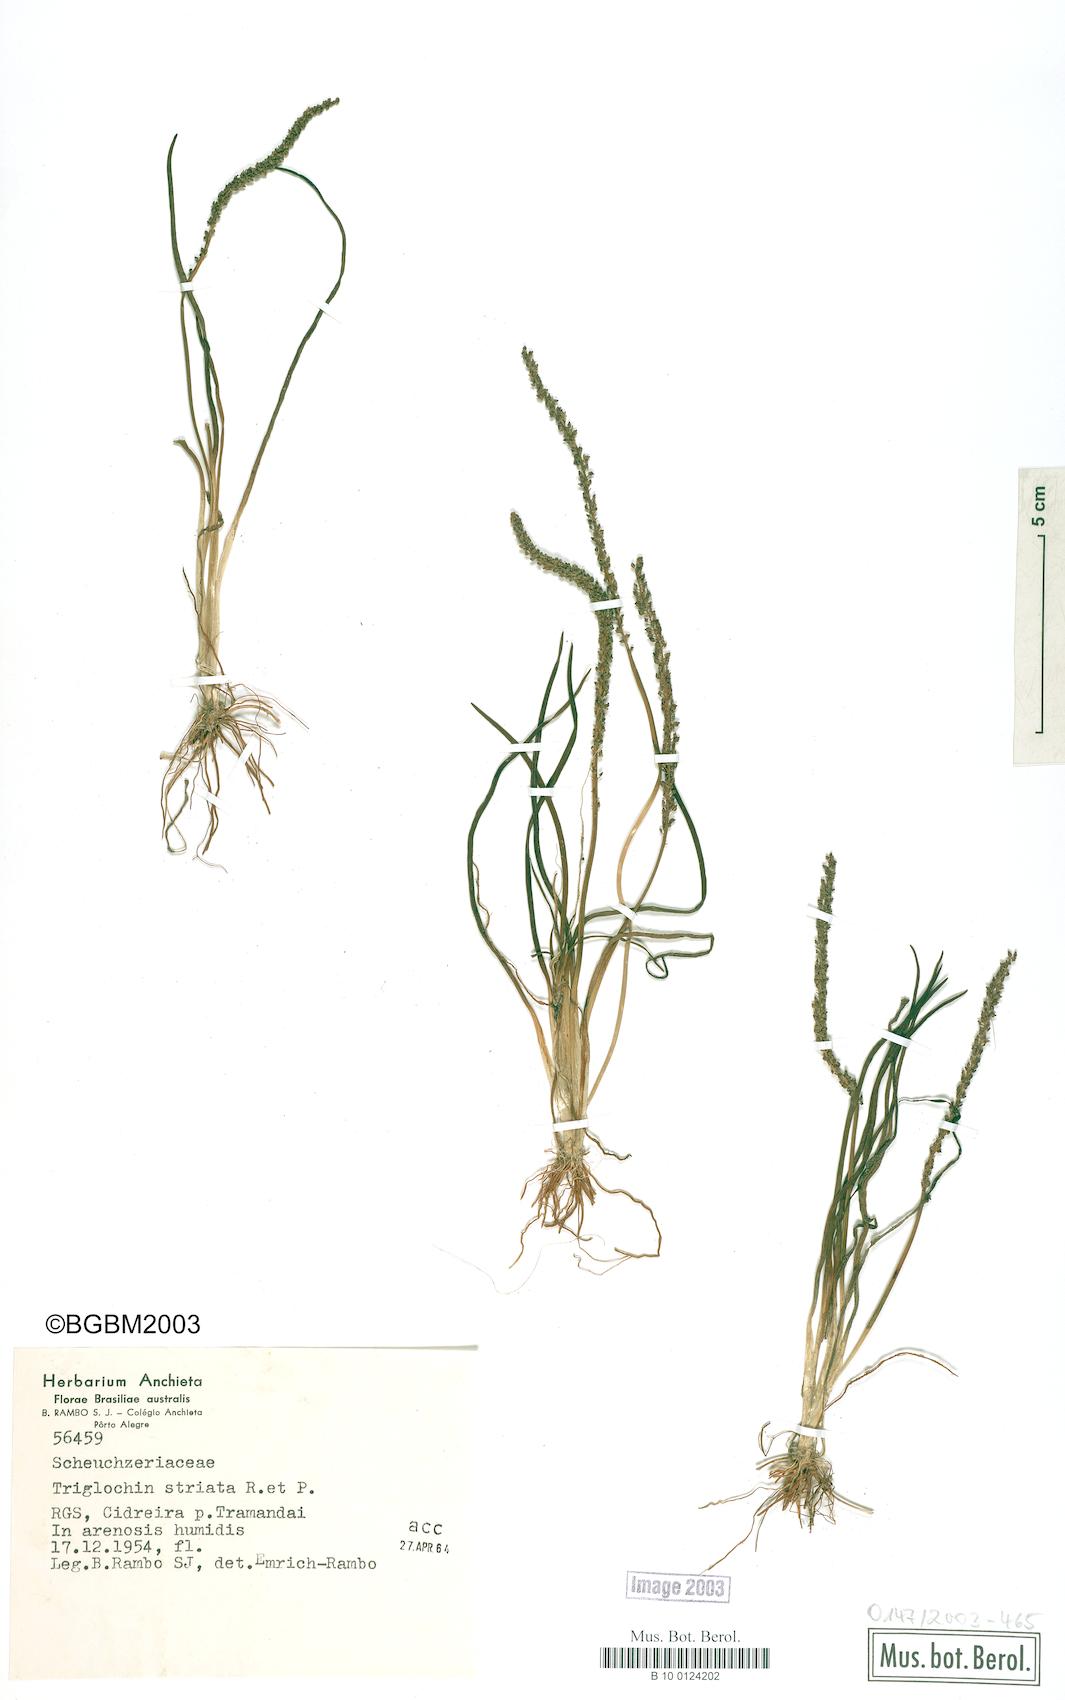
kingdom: Plantae
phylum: Tracheophyta
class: Liliopsida
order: Alismatales
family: Juncaginaceae
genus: Triglochin
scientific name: Triglochin striata
